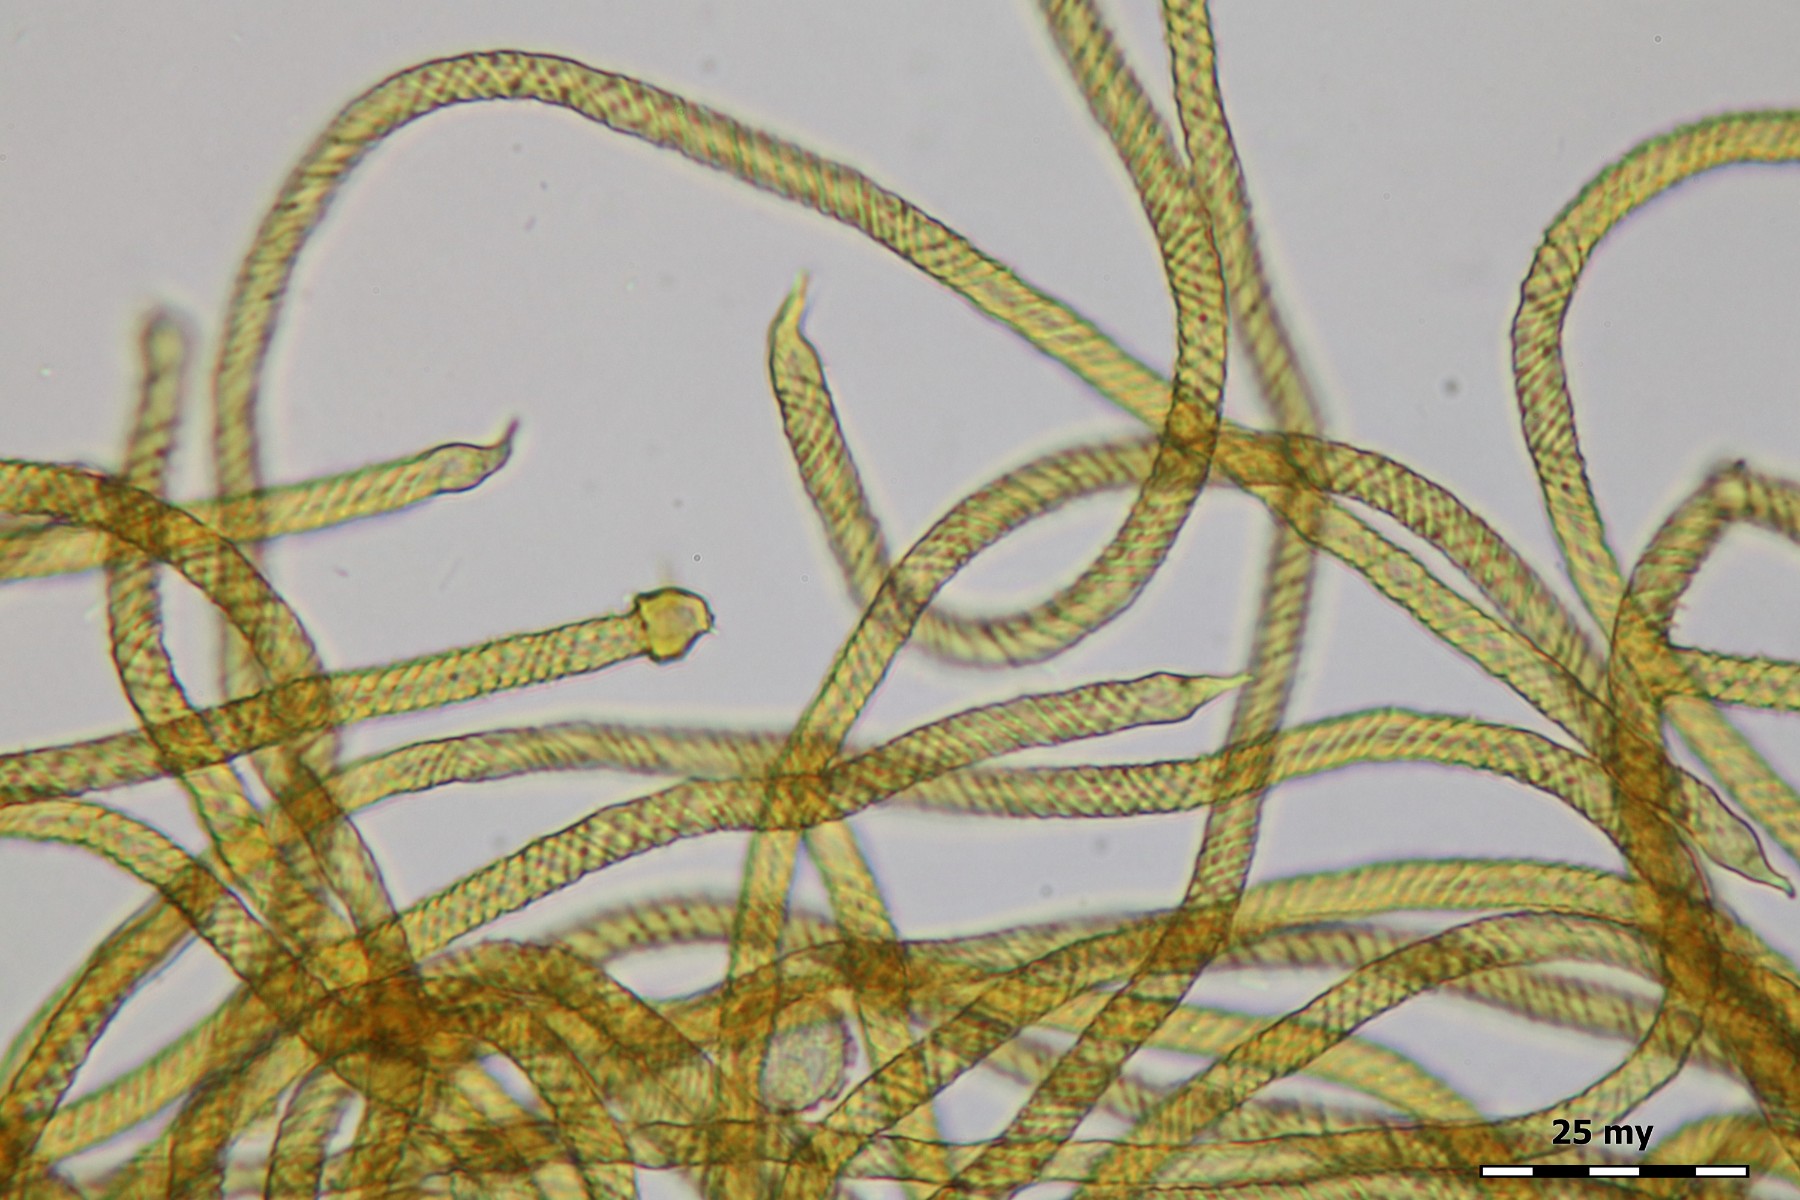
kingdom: Protozoa
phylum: Mycetozoa
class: Myxomycetes
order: Trichiales
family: Trichiaceae
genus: Oligonema
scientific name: Oligonema persimile
